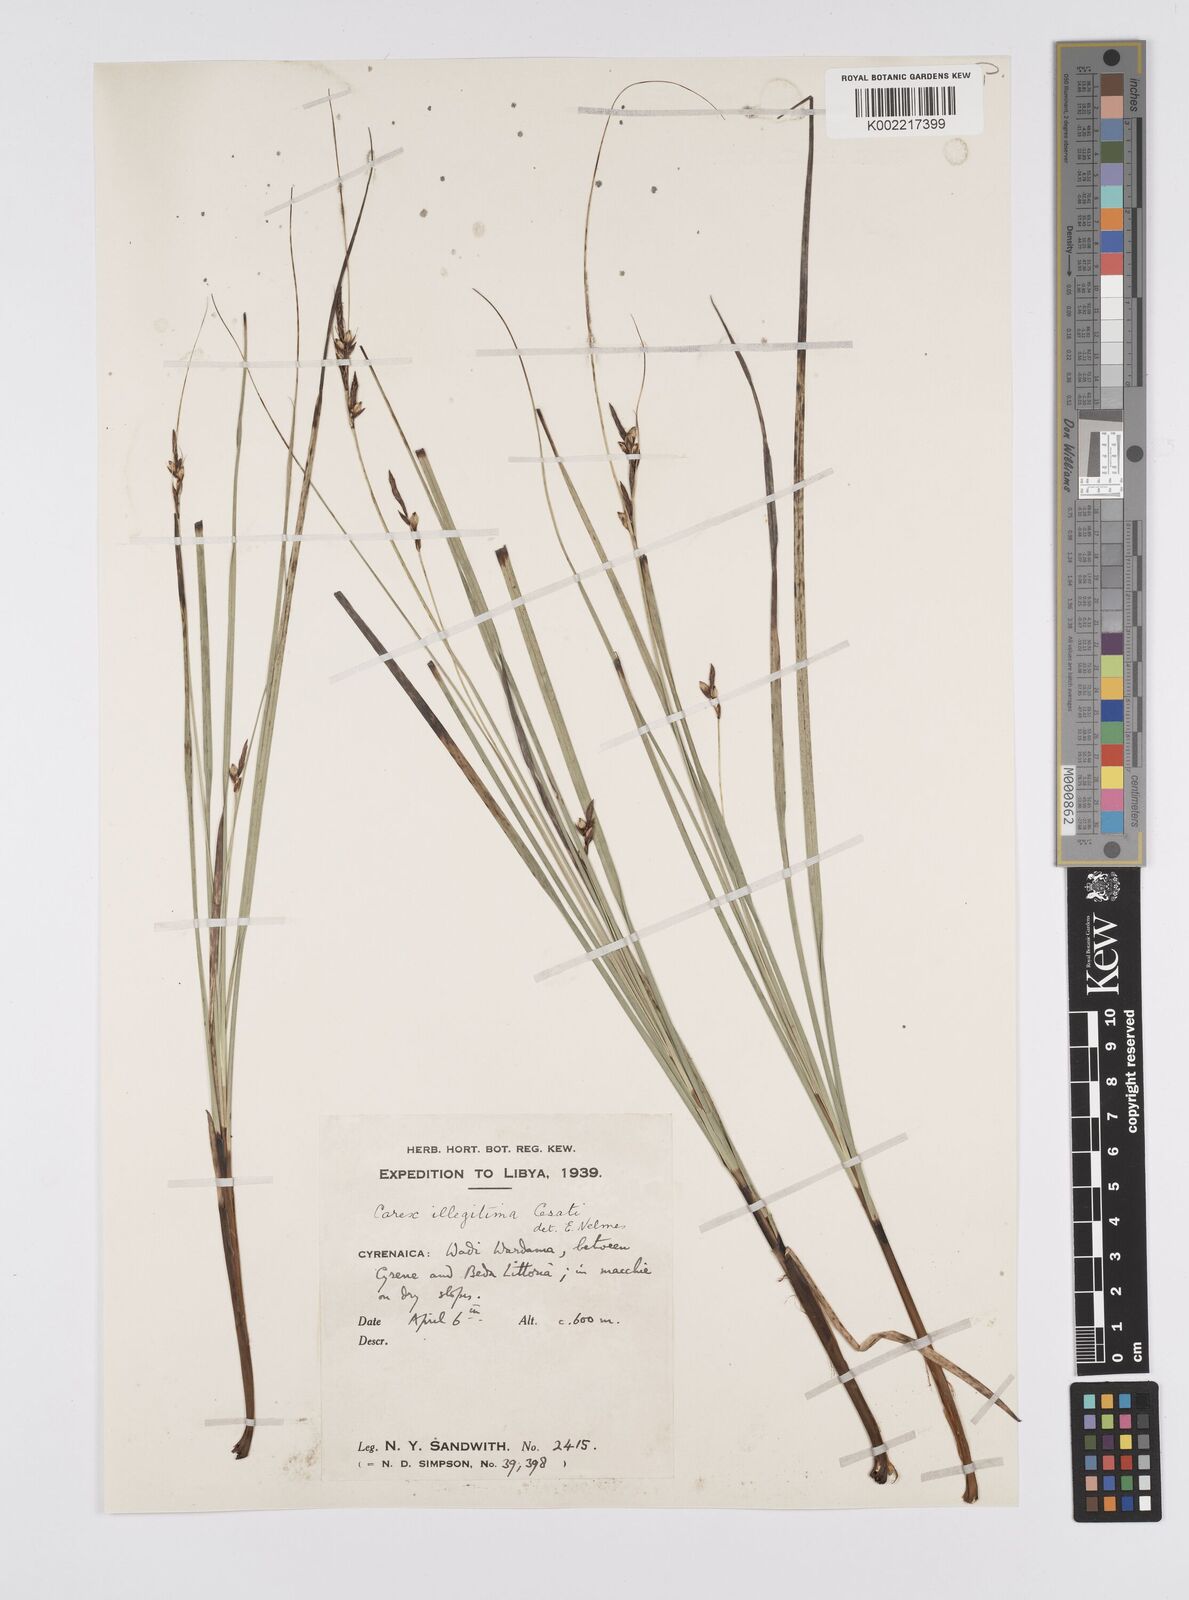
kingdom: Plantae
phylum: Tracheophyta
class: Liliopsida
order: Poales
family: Cyperaceae
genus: Carex
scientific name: Carex illegitima
